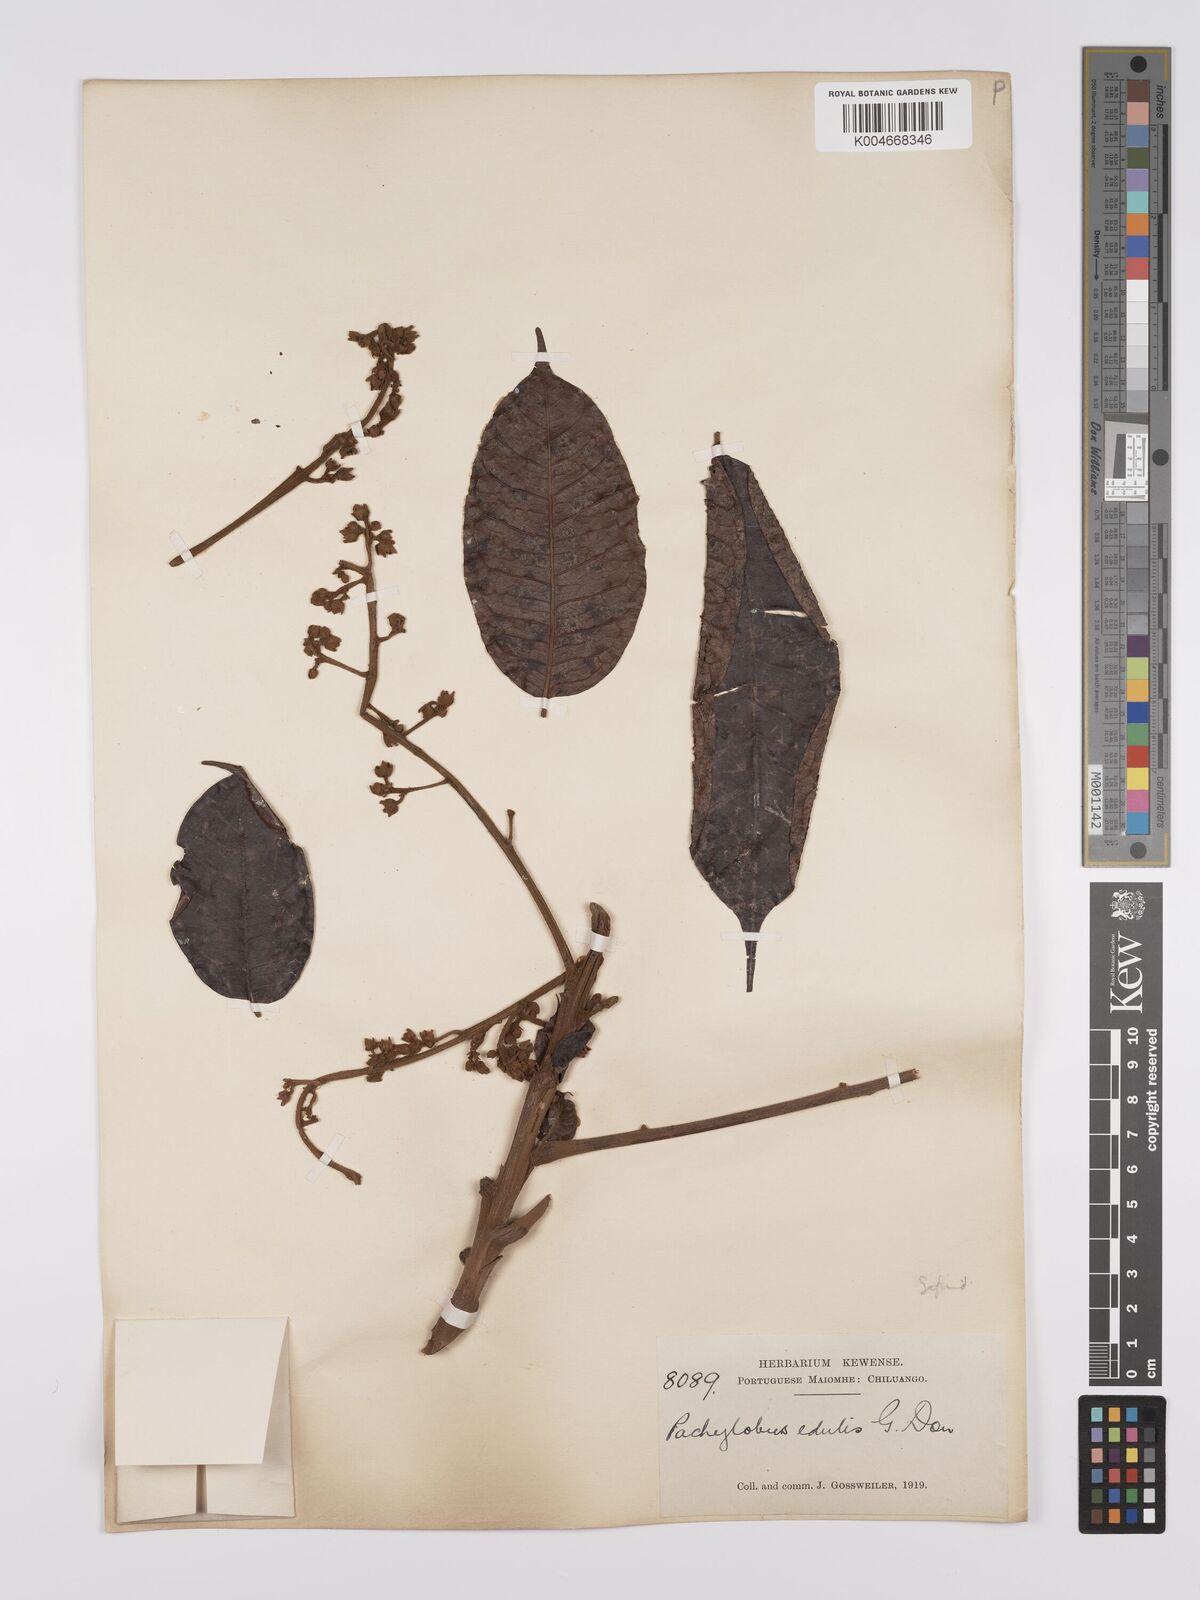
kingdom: Plantae
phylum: Tracheophyta
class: Magnoliopsida
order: Sapindales
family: Burseraceae
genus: Pachylobus
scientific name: Pachylobus edulis
